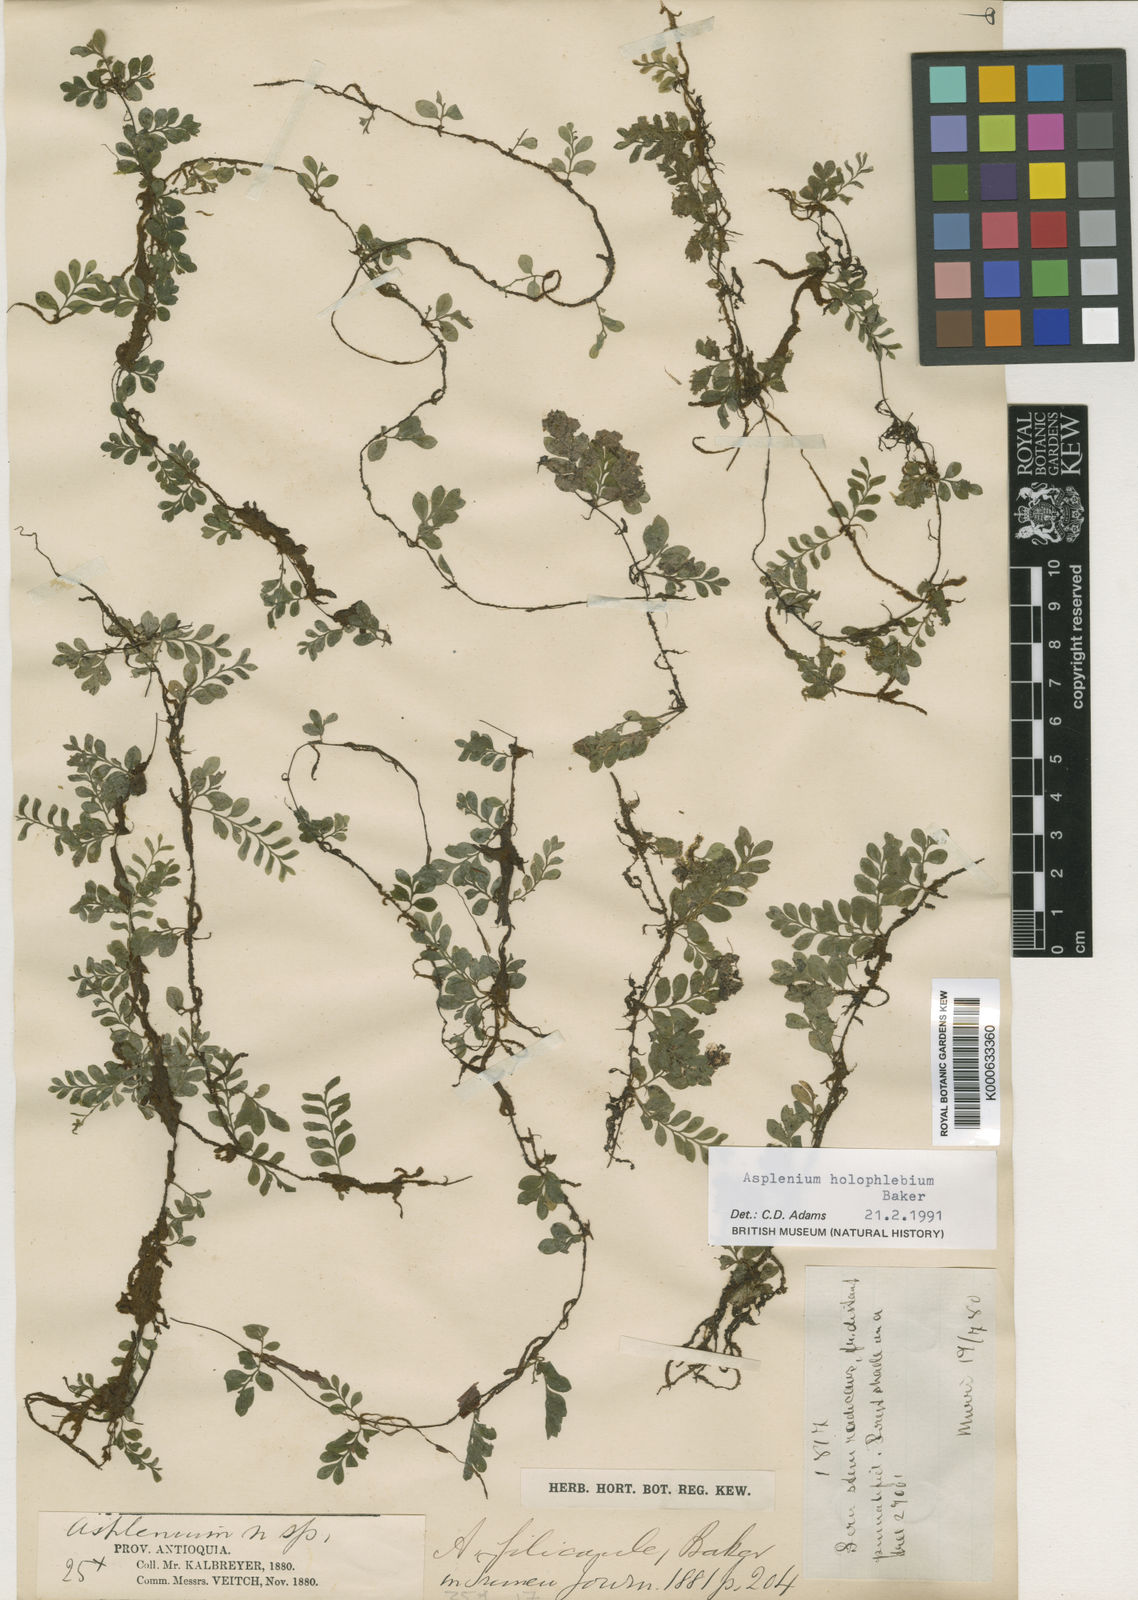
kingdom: Plantae
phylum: Tracheophyta
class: Polypodiopsida
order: Polypodiales
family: Aspleniaceae
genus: Asplenium
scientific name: Asplenium holophlebium
